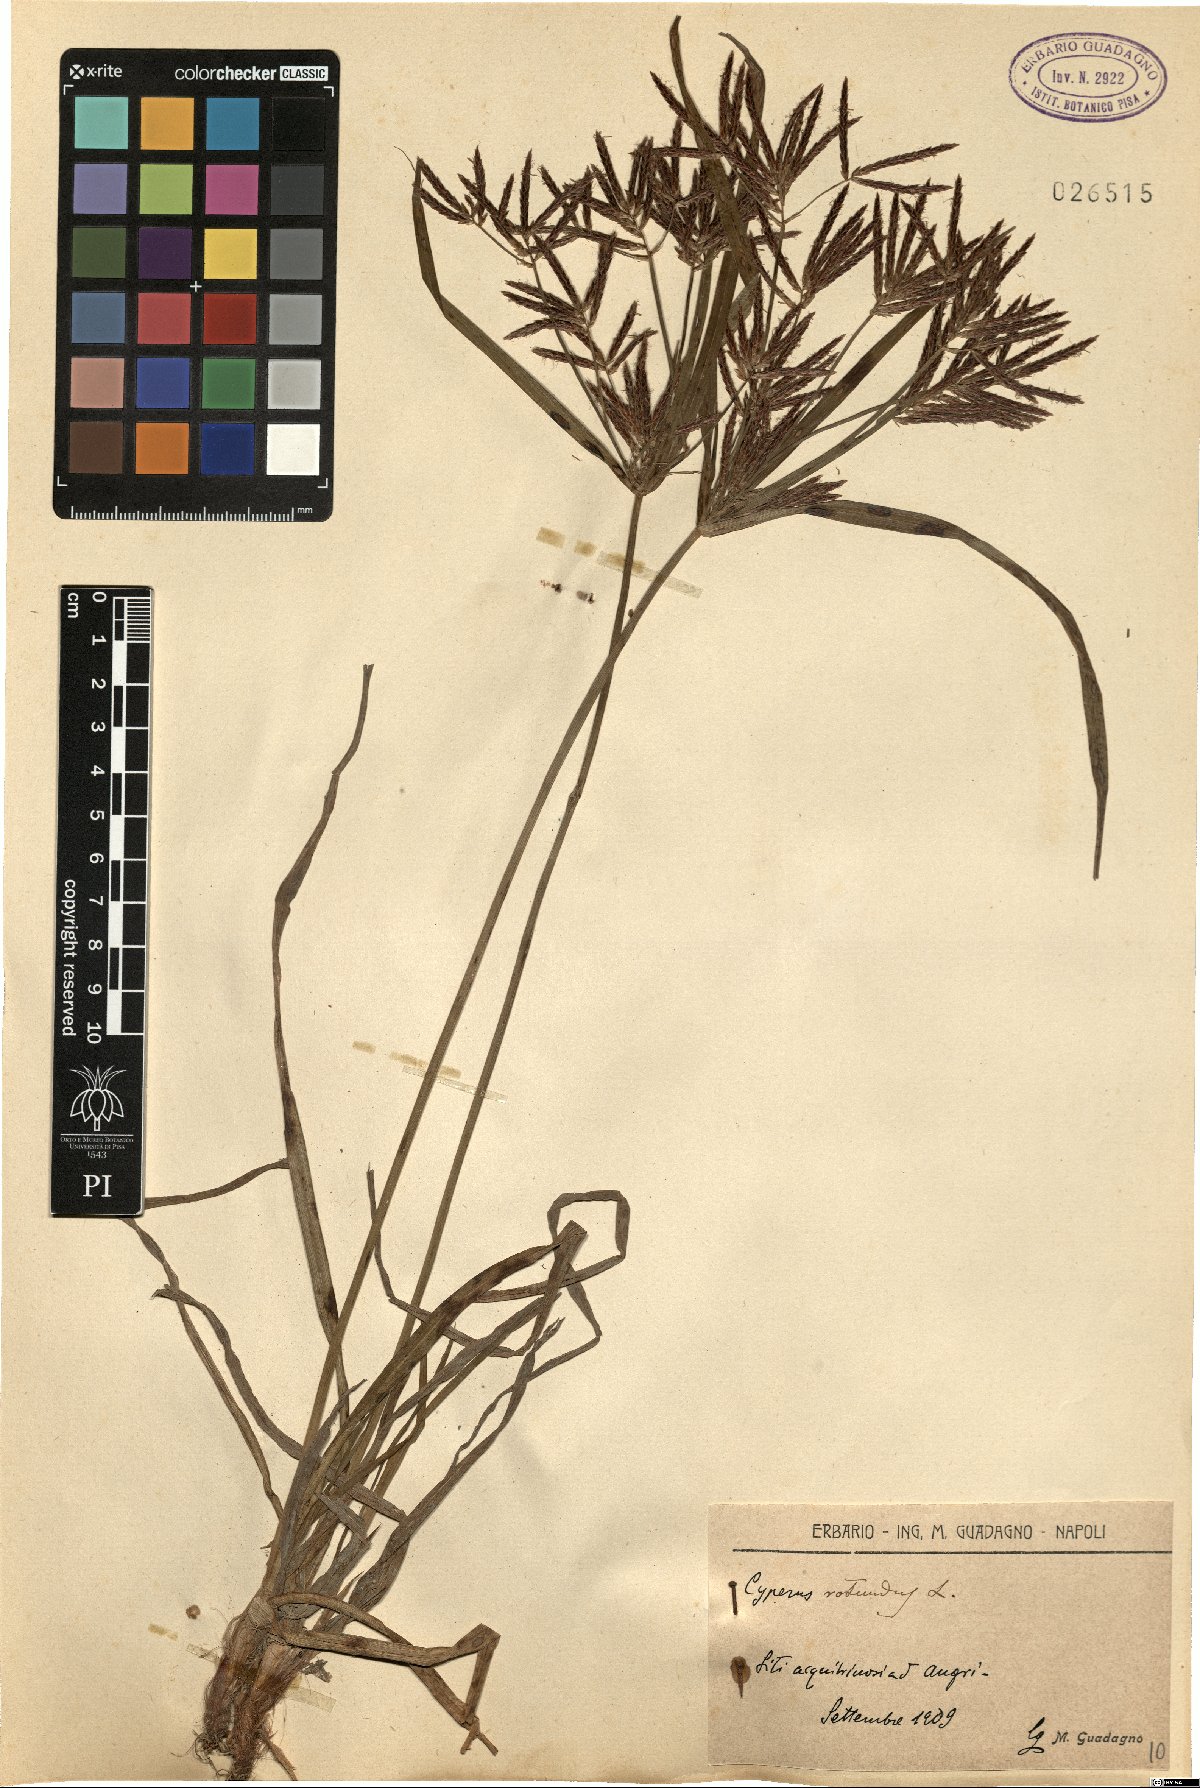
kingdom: Plantae
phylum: Tracheophyta
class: Liliopsida
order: Poales
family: Cyperaceae
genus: Cyperus
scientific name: Cyperus rotundus
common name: Nutgrass
